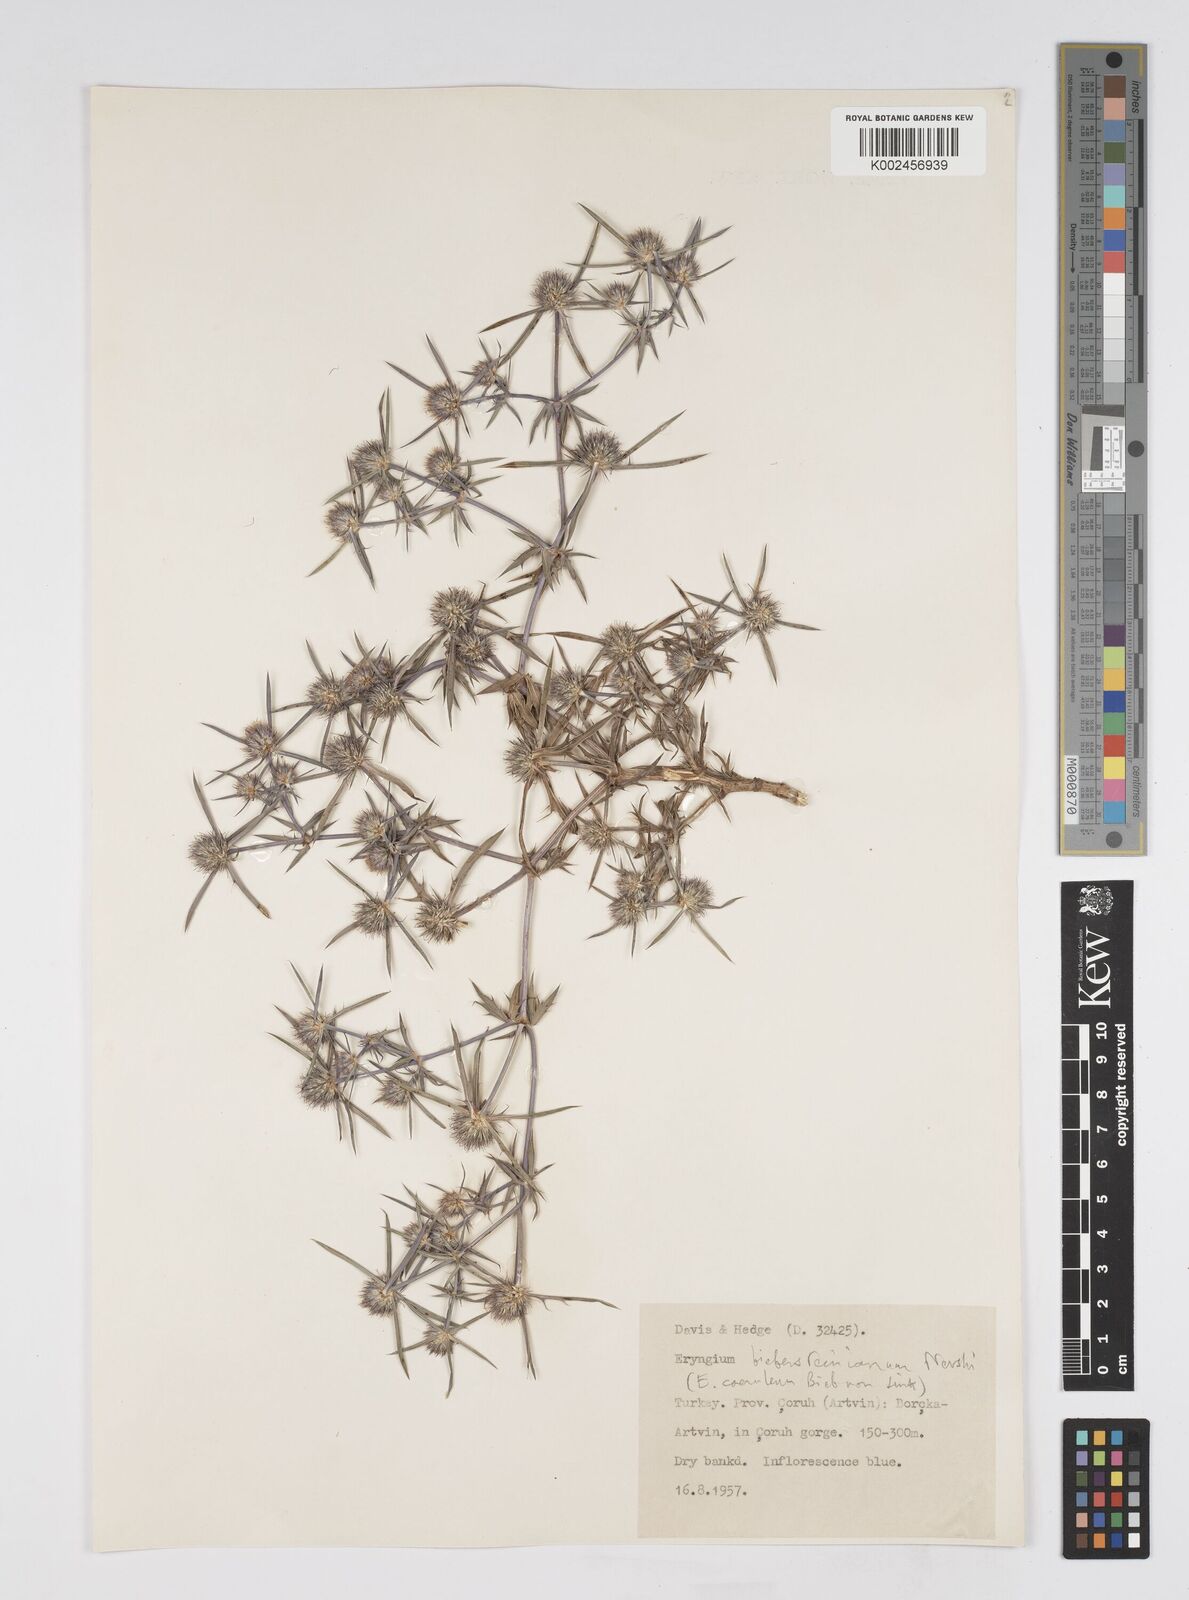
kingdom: Plantae
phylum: Tracheophyta
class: Magnoliopsida
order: Apiales
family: Apiaceae
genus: Eryngium
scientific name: Eryngium
